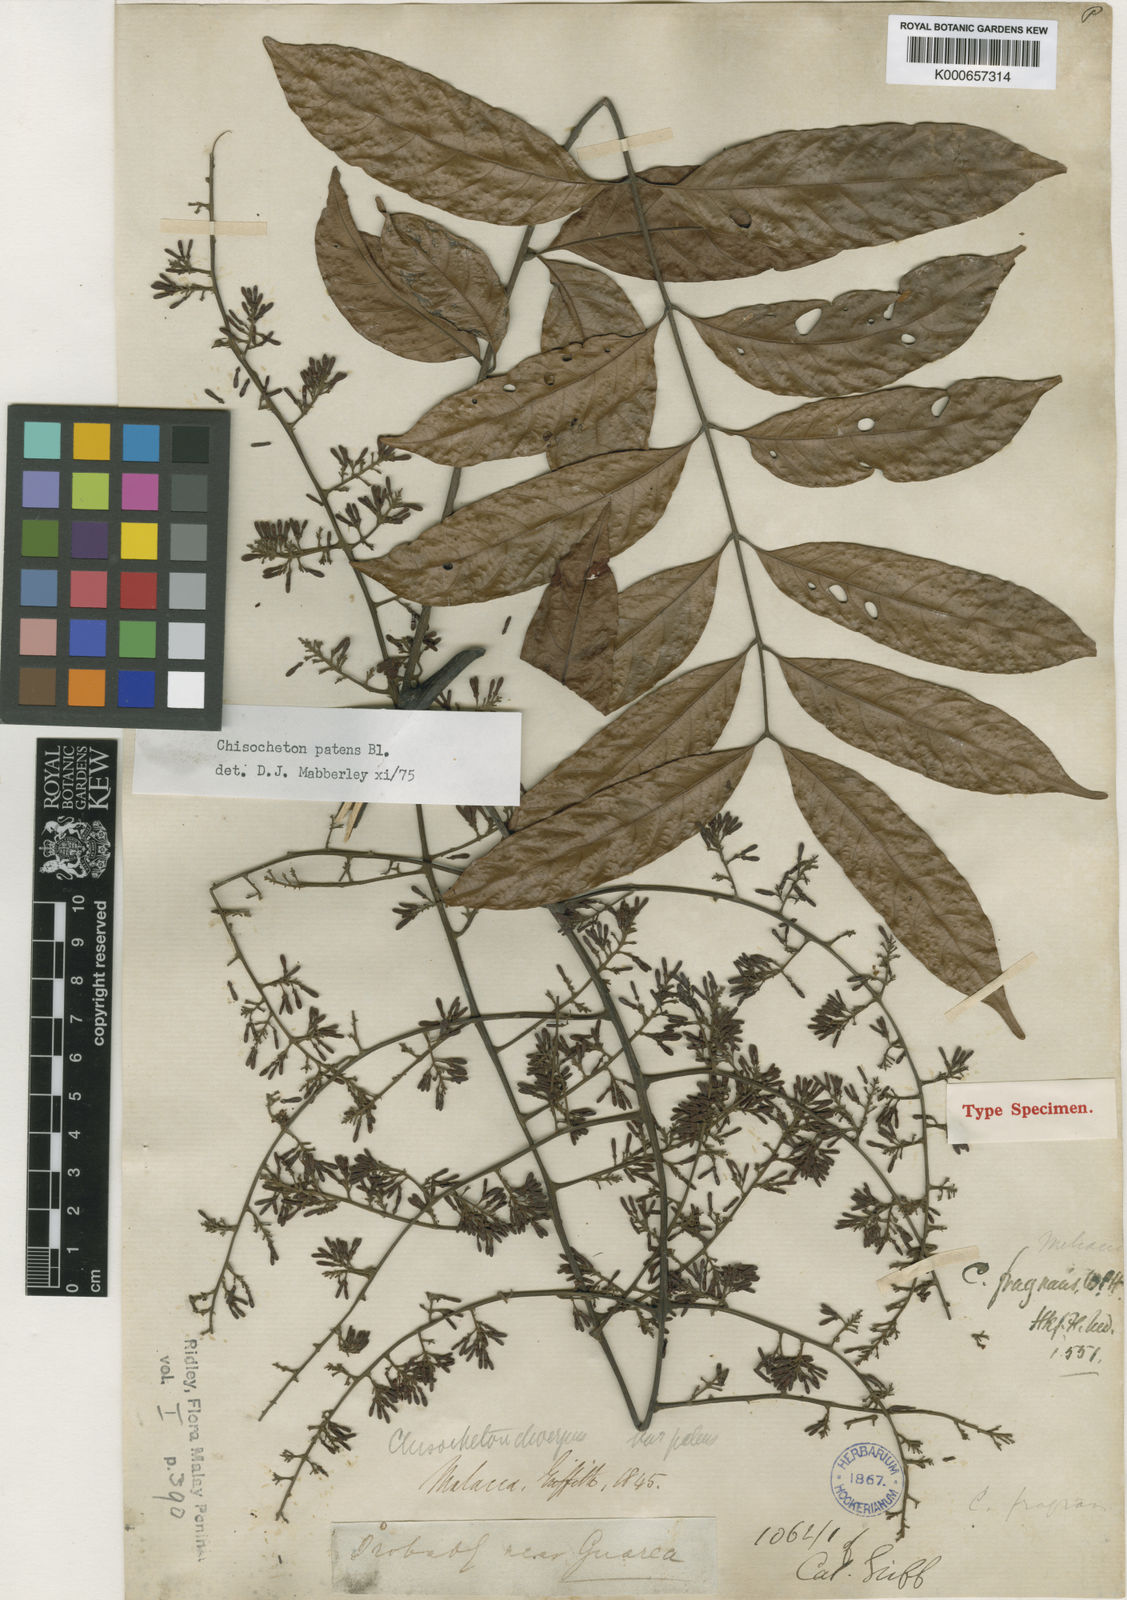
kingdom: Plantae
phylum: Tracheophyta
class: Magnoliopsida
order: Sapindales
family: Meliaceae
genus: Chisocheton
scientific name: Chisocheton patens
